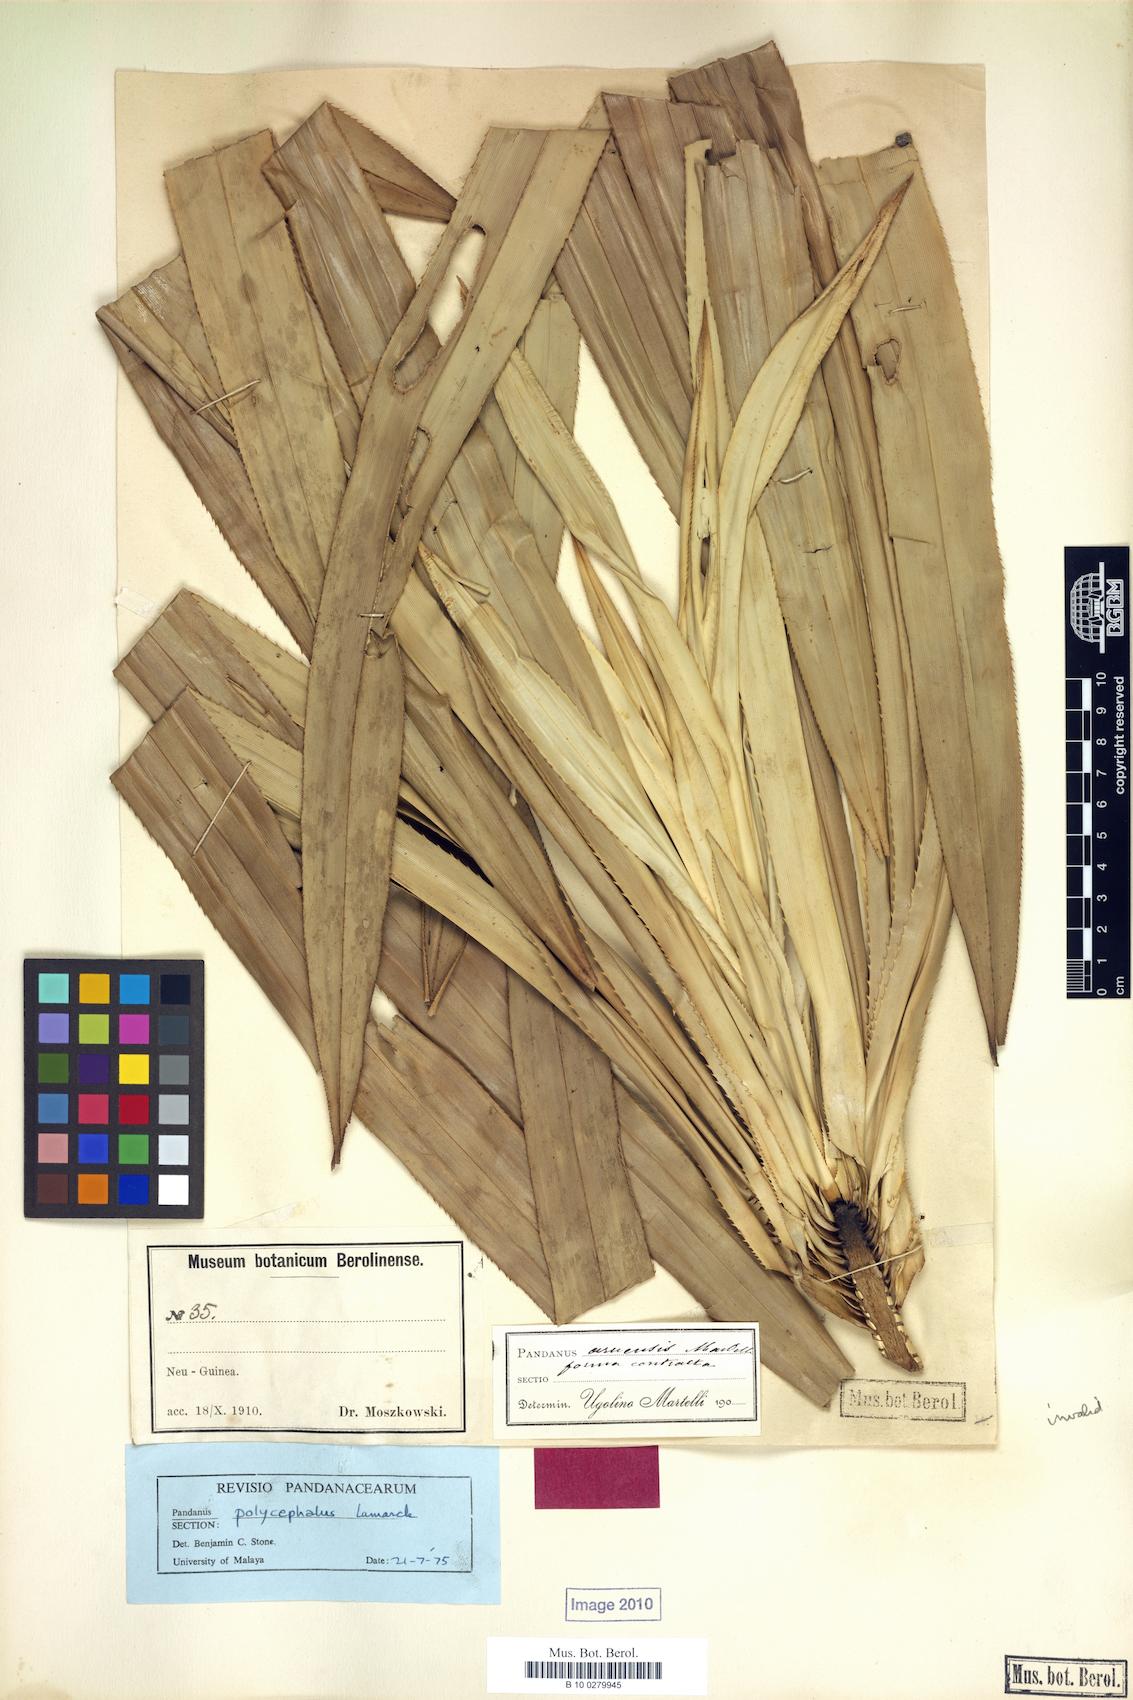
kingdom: Plantae
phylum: Tracheophyta
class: Liliopsida
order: Pandanales
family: Pandanaceae
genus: Pandanus
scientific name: Pandanus polycephalus
